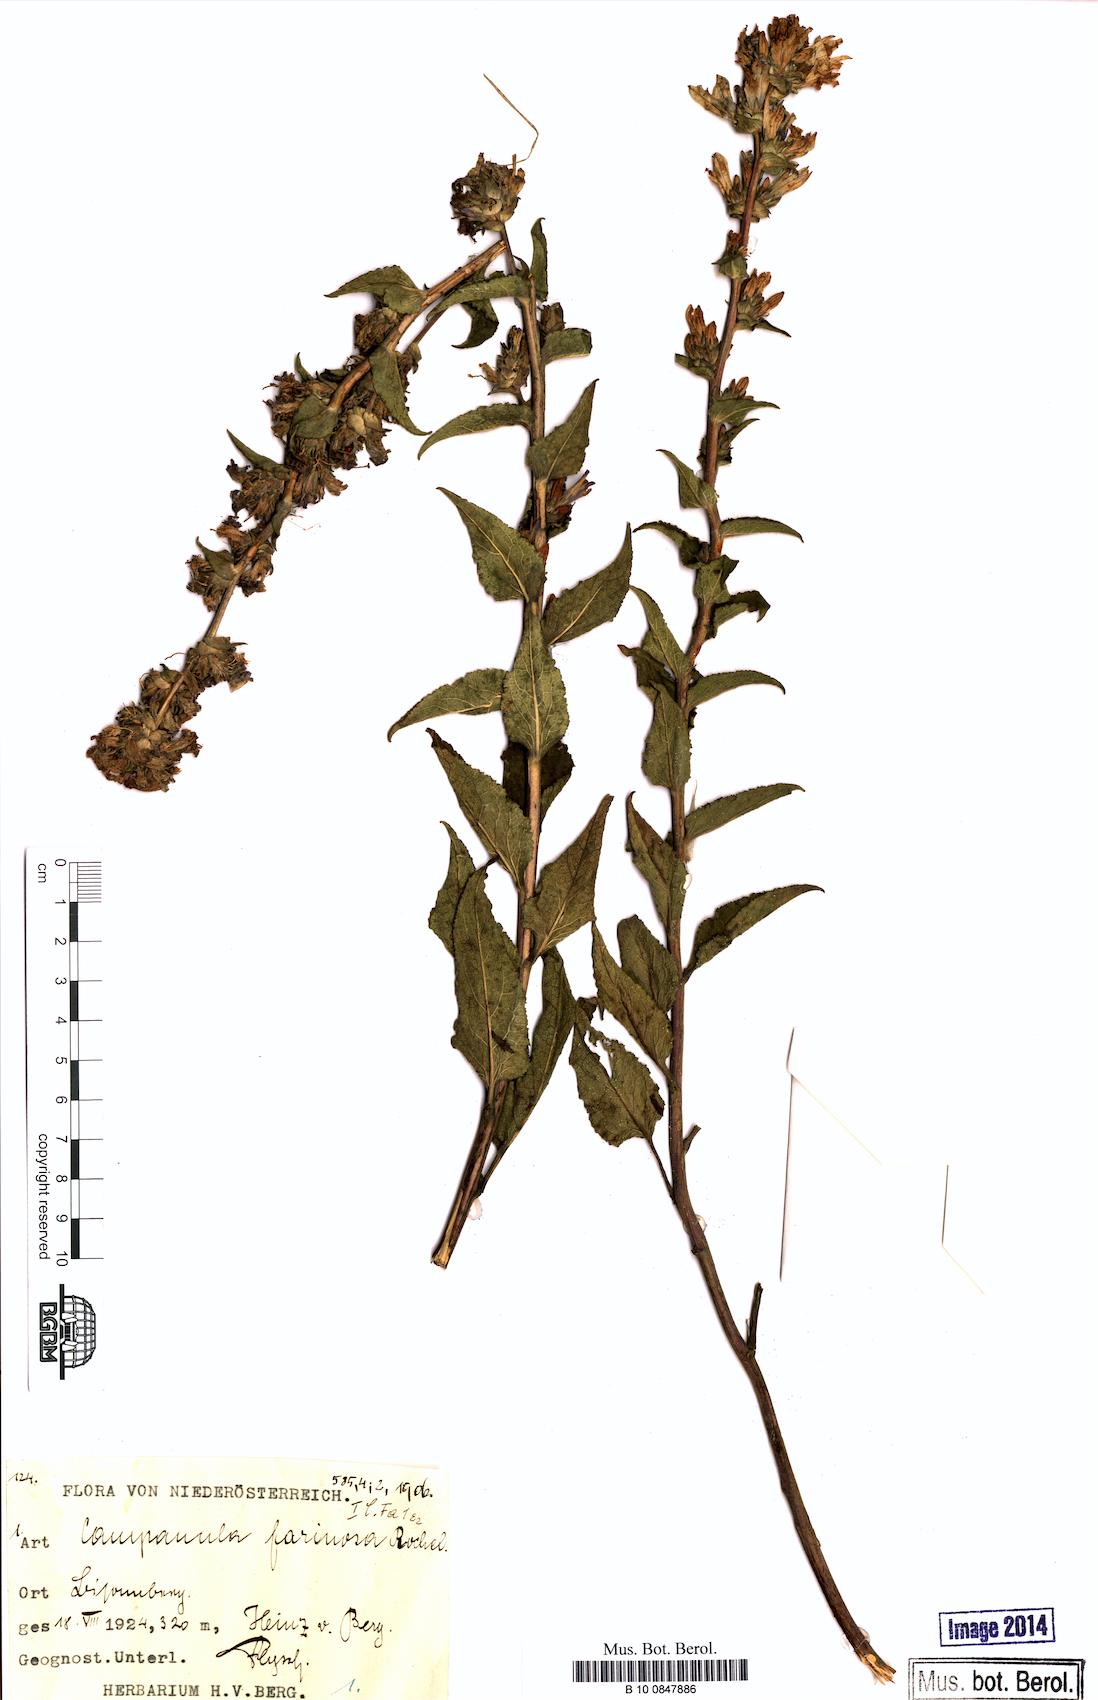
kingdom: Plantae
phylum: Tracheophyta
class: Magnoliopsida
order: Asterales
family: Campanulaceae
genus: Campanula
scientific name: Campanula glomerata
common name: Clustered bellflower
